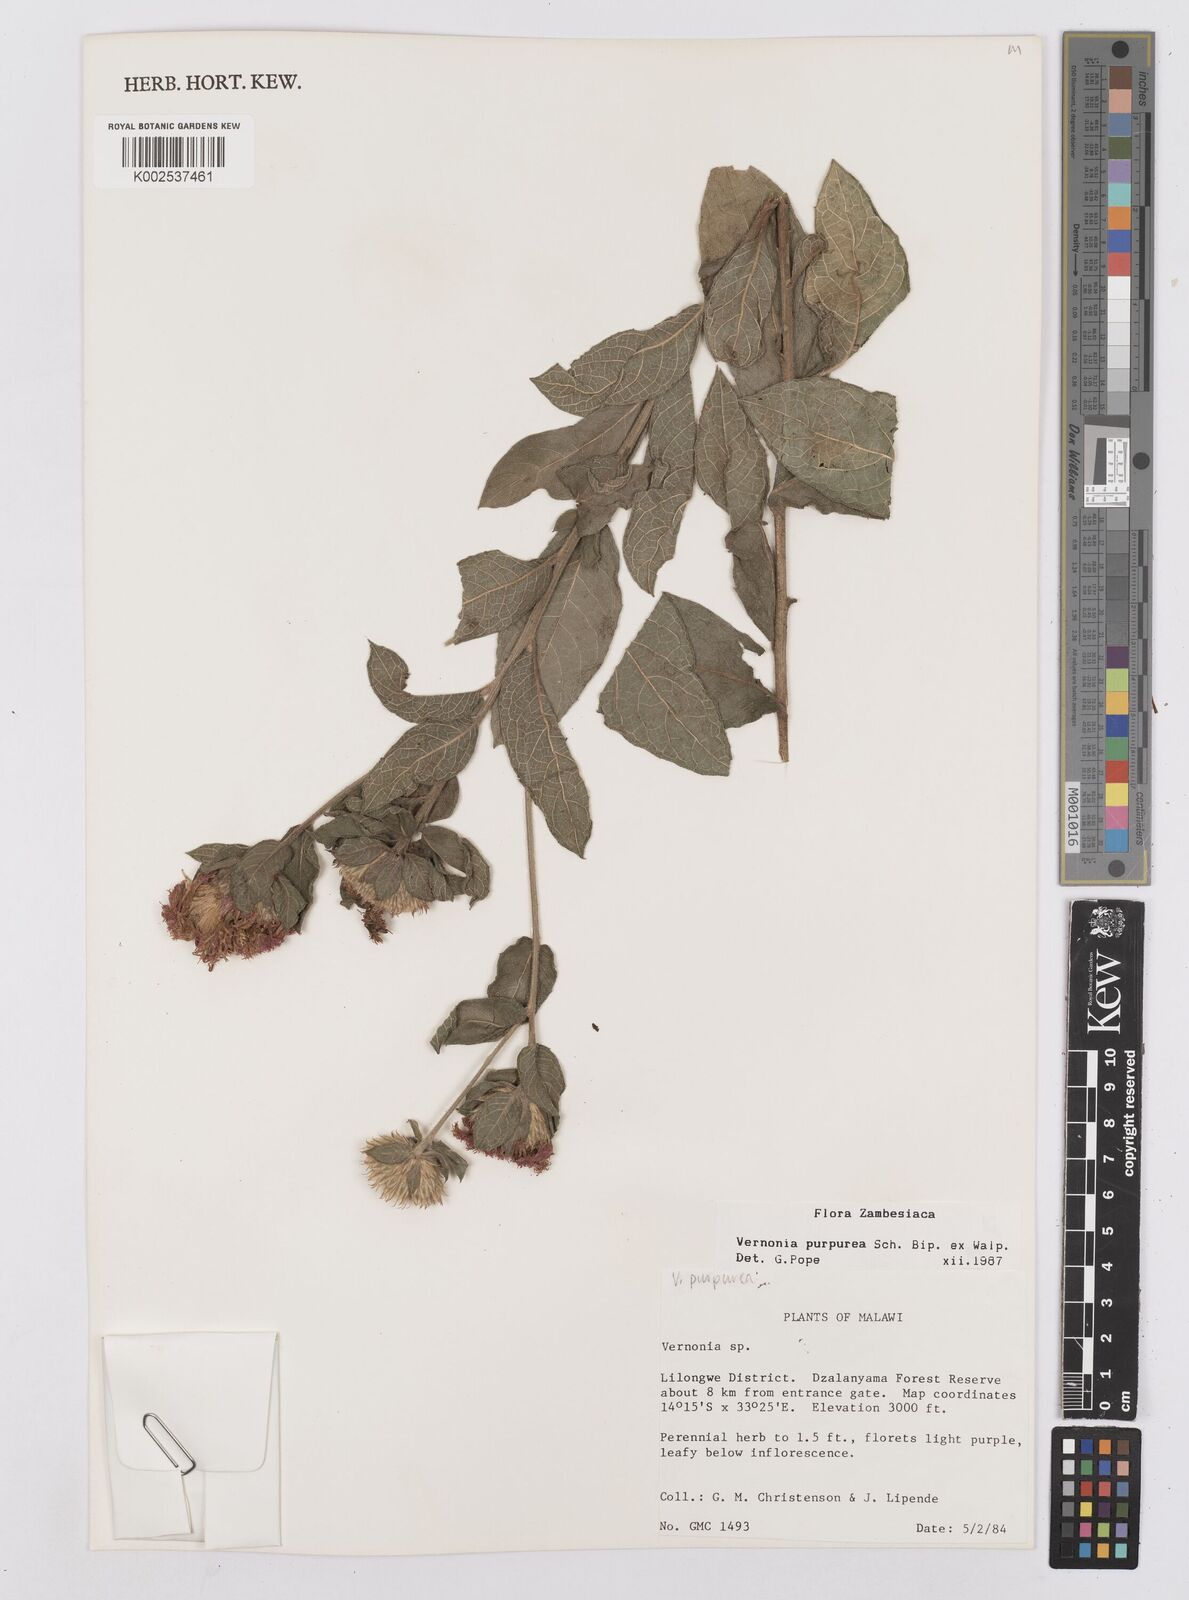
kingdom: Plantae
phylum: Tracheophyta
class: Magnoliopsida
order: Asterales
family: Asteraceae
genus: Nothovernonia
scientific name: Nothovernonia purpurea
